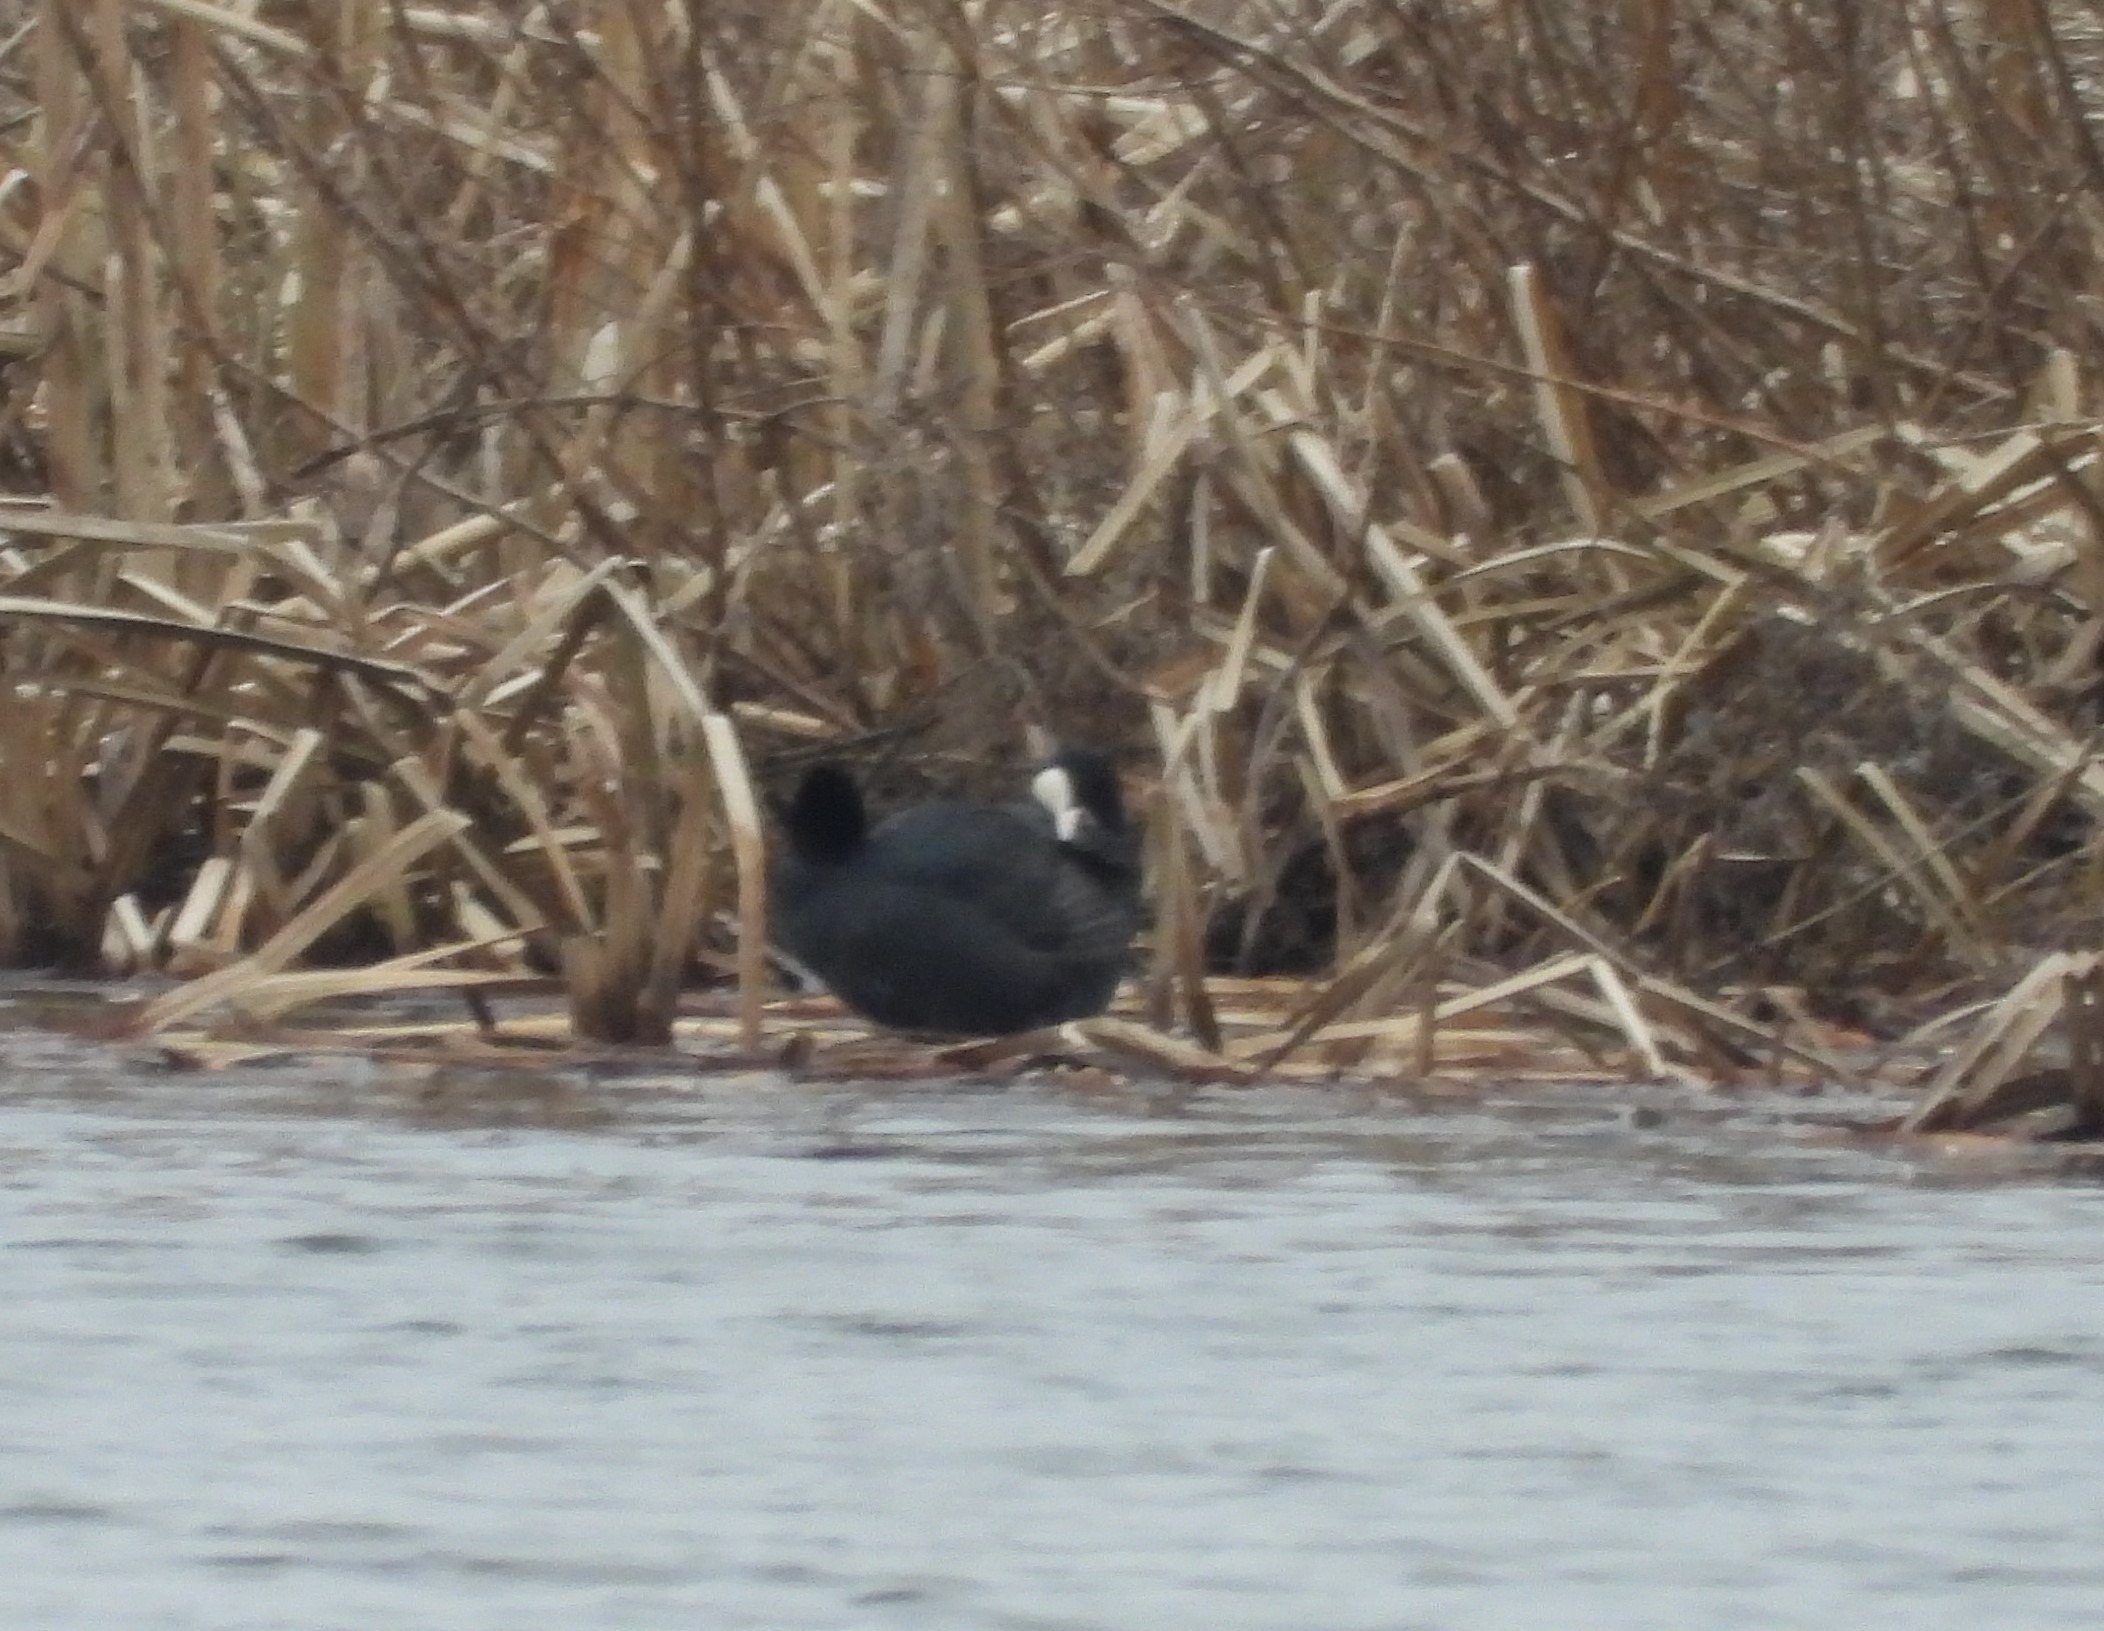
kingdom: Animalia
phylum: Chordata
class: Aves
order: Gruiformes
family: Rallidae
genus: Fulica
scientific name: Fulica atra
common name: Blishøne
